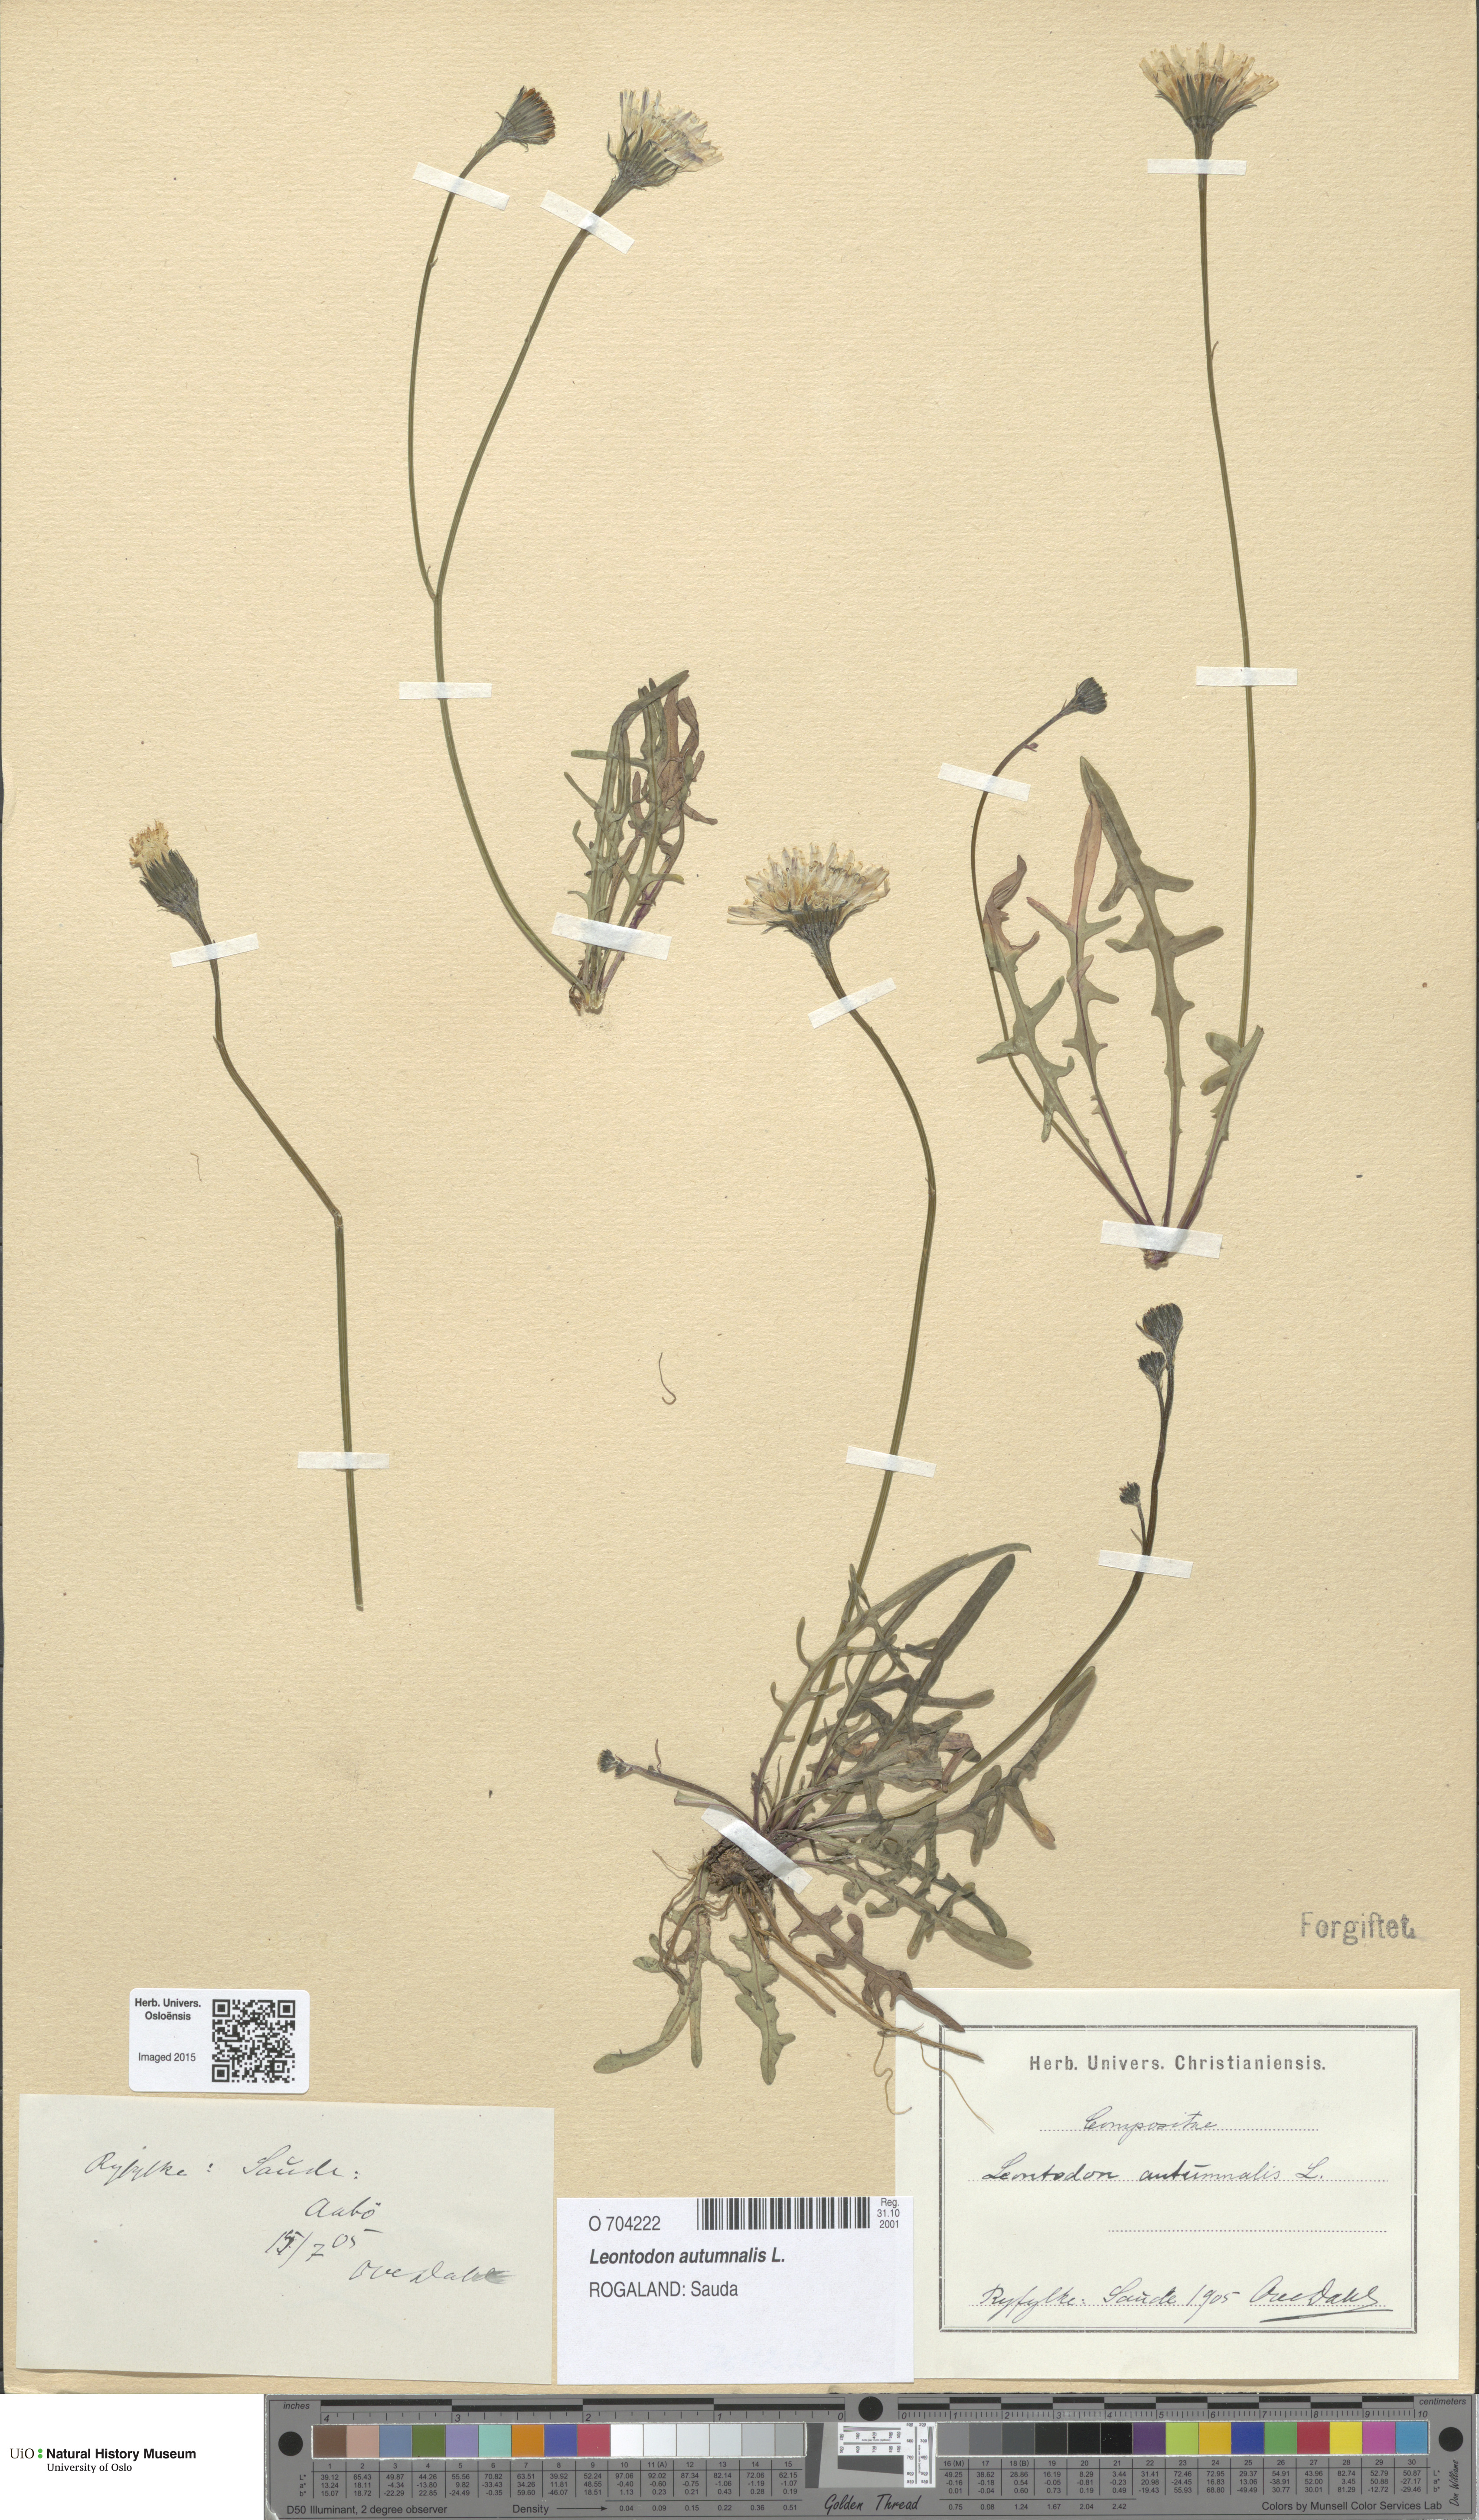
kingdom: Plantae
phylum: Tracheophyta
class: Magnoliopsida
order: Asterales
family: Asteraceae
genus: Scorzoneroides
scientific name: Scorzoneroides autumnalis
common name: Autumn hawkbit
